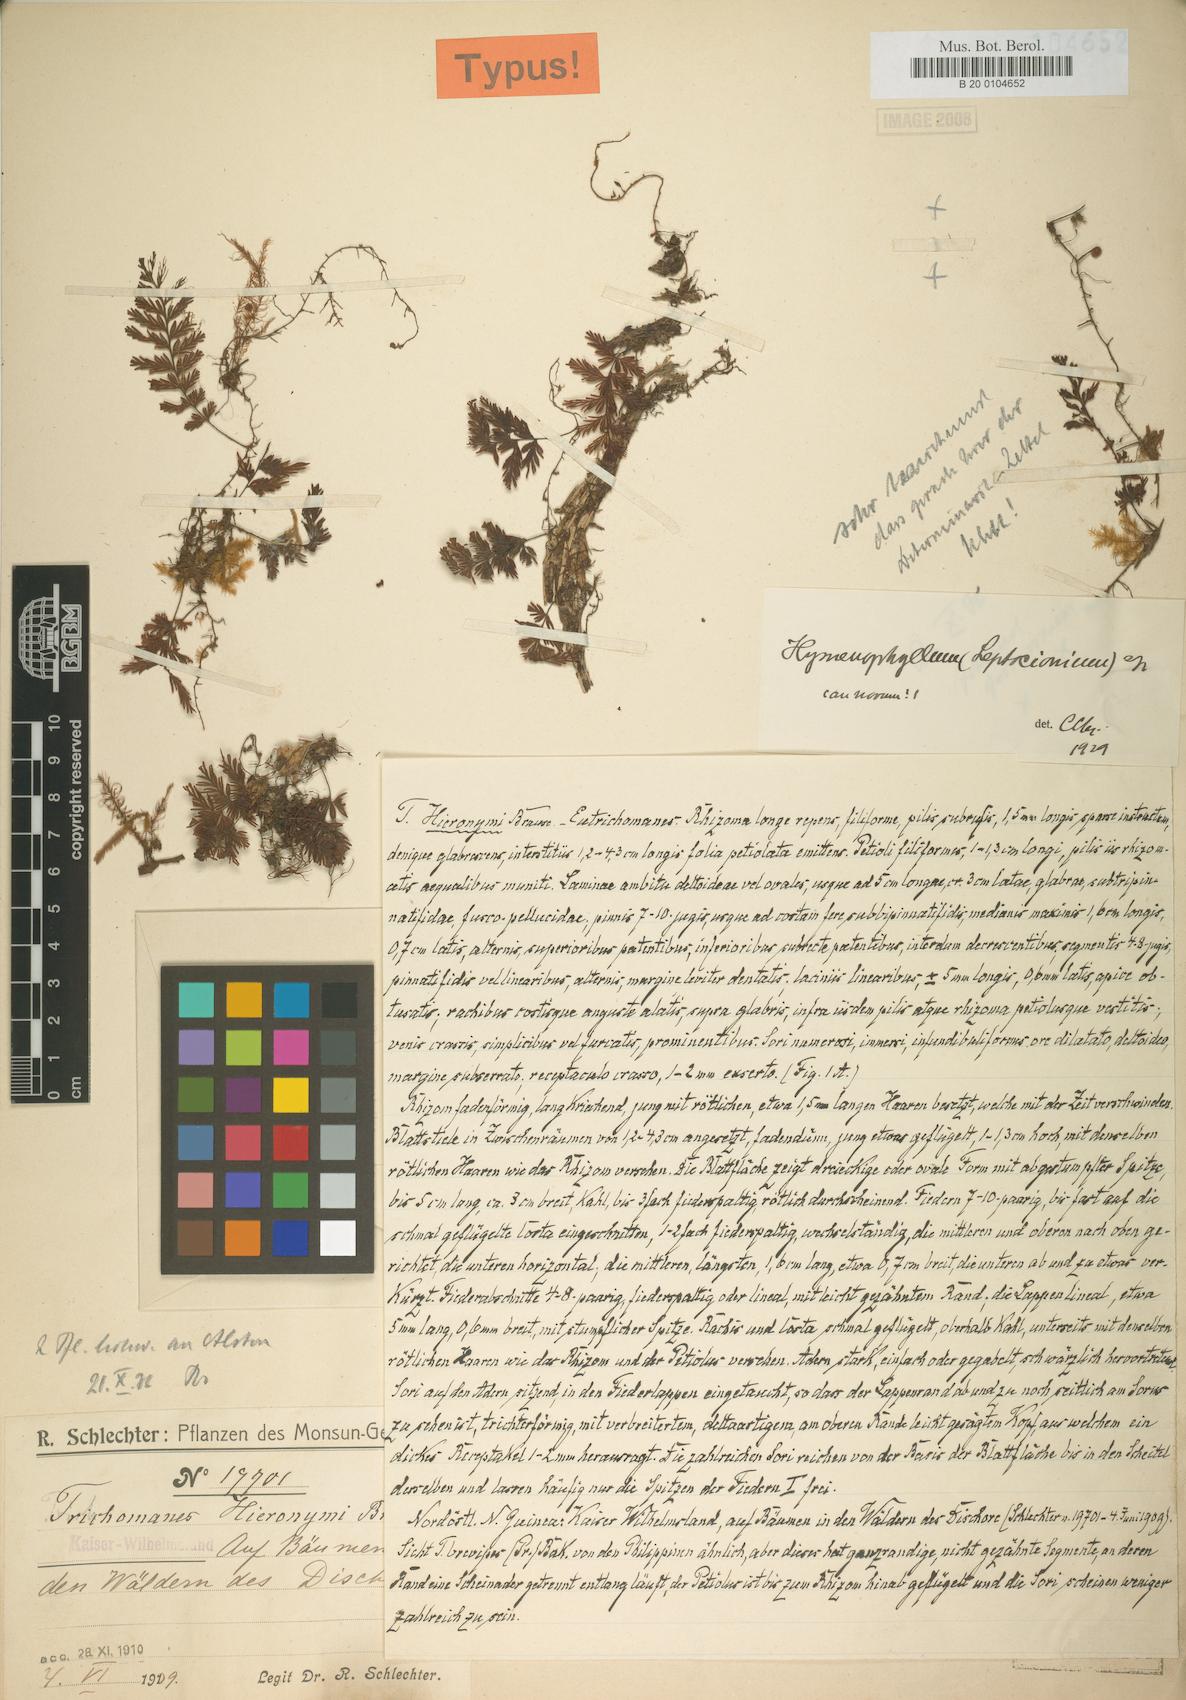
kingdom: Plantae
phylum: Tracheophyta
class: Polypodiopsida
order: Hymenophyllales
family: Hymenophyllaceae
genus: Hymenophyllum
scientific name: Hymenophyllum hieronymi
